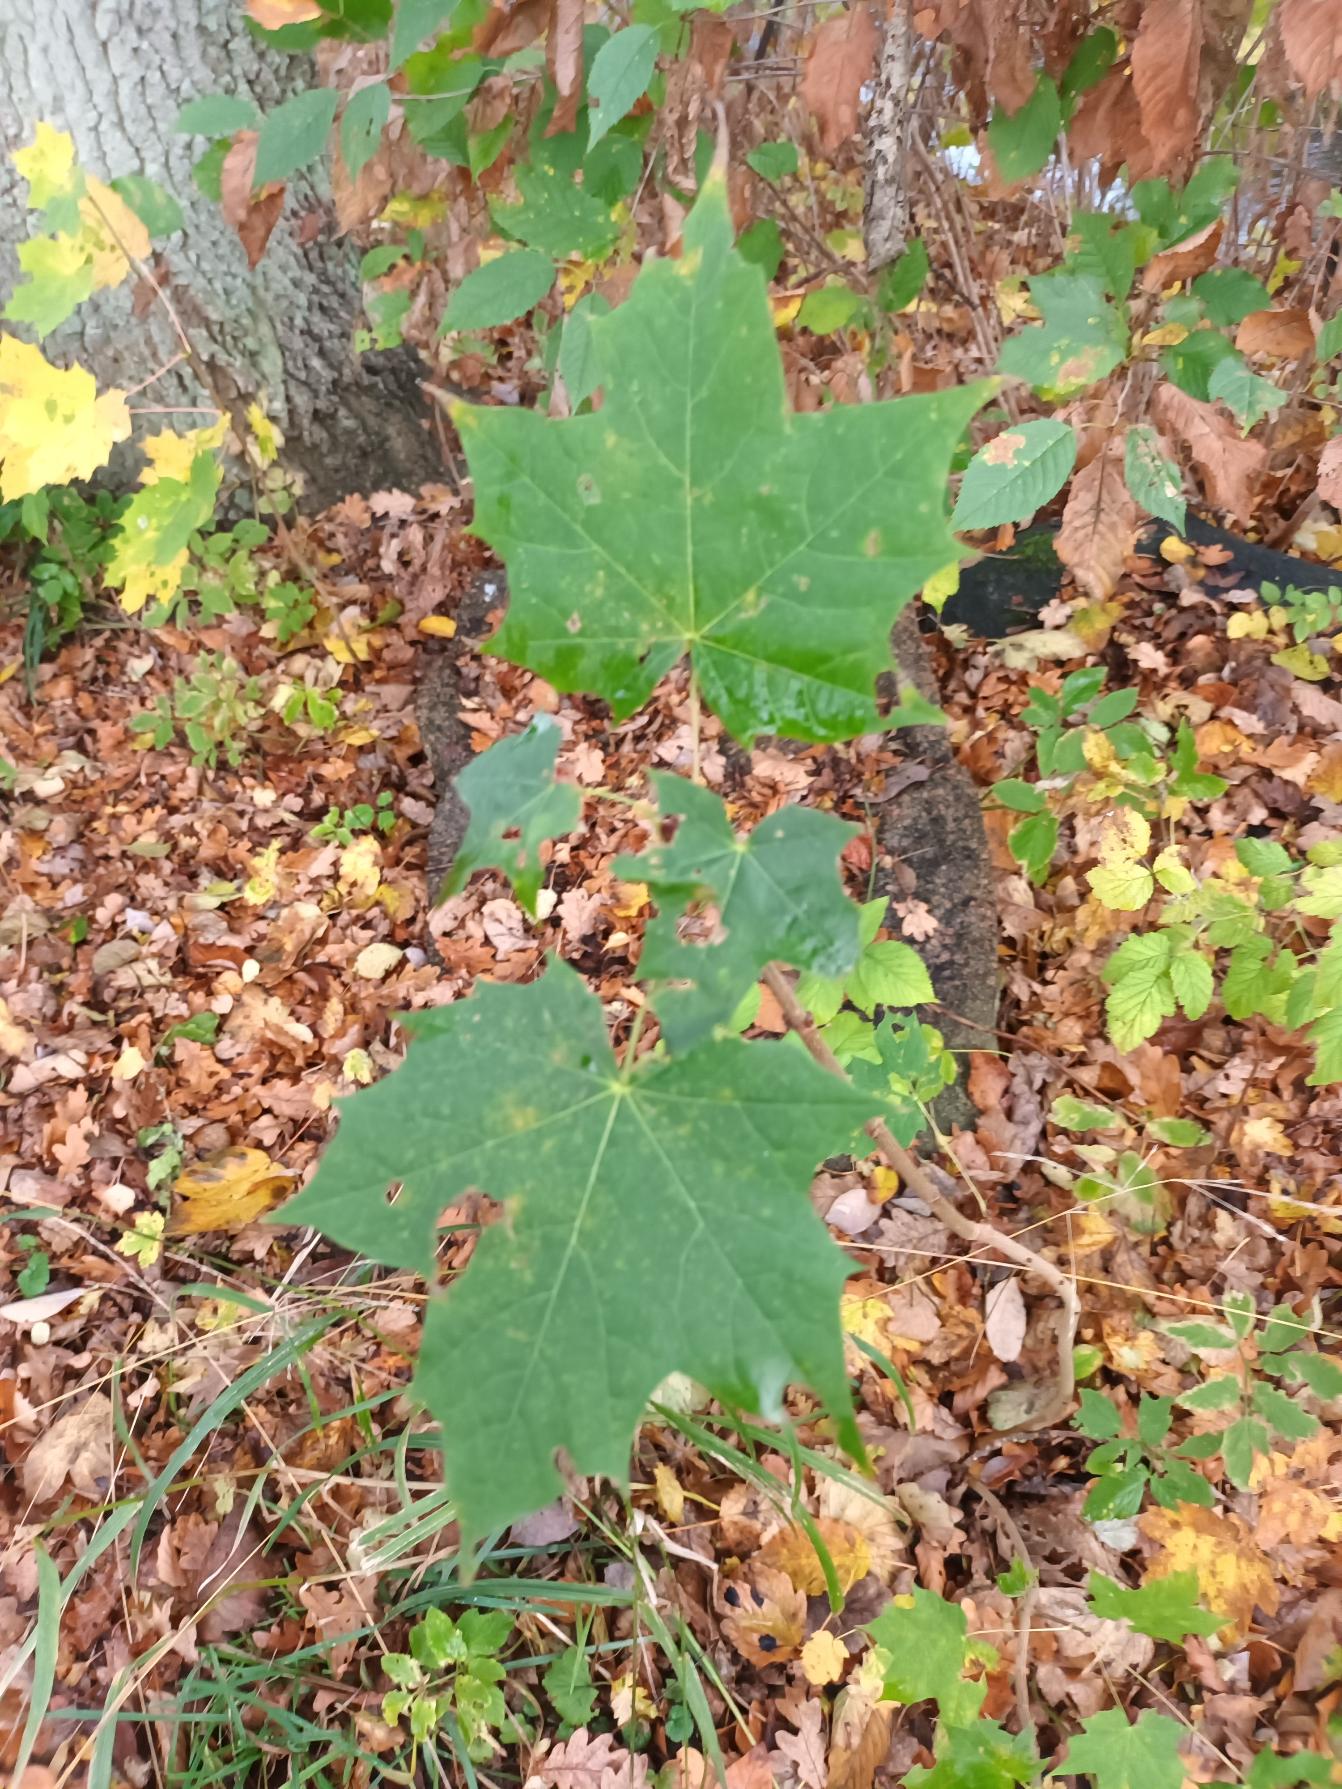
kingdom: Plantae
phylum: Tracheophyta
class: Magnoliopsida
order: Sapindales
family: Sapindaceae
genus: Acer
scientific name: Acer platanoides
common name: Spids-løn
